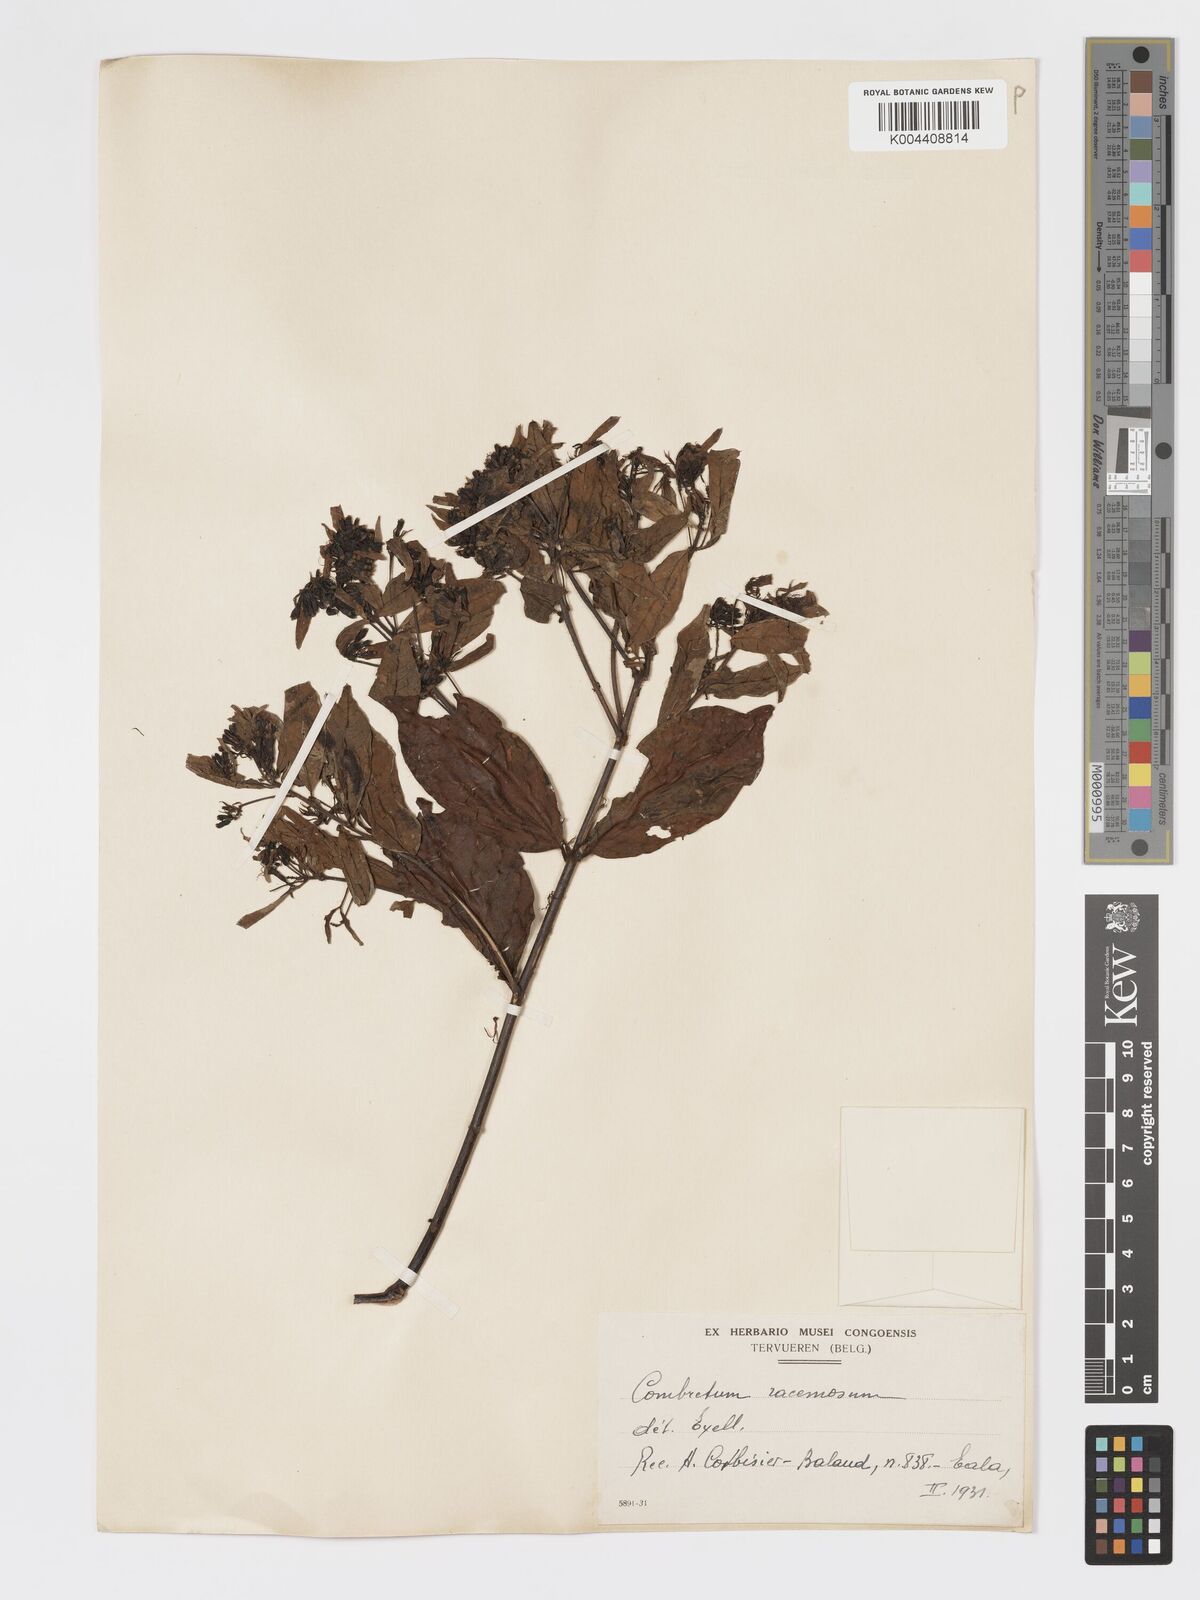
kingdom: Plantae
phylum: Tracheophyta
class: Magnoliopsida
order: Myrtales
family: Combretaceae
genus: Combretum
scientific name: Combretum racemosum
